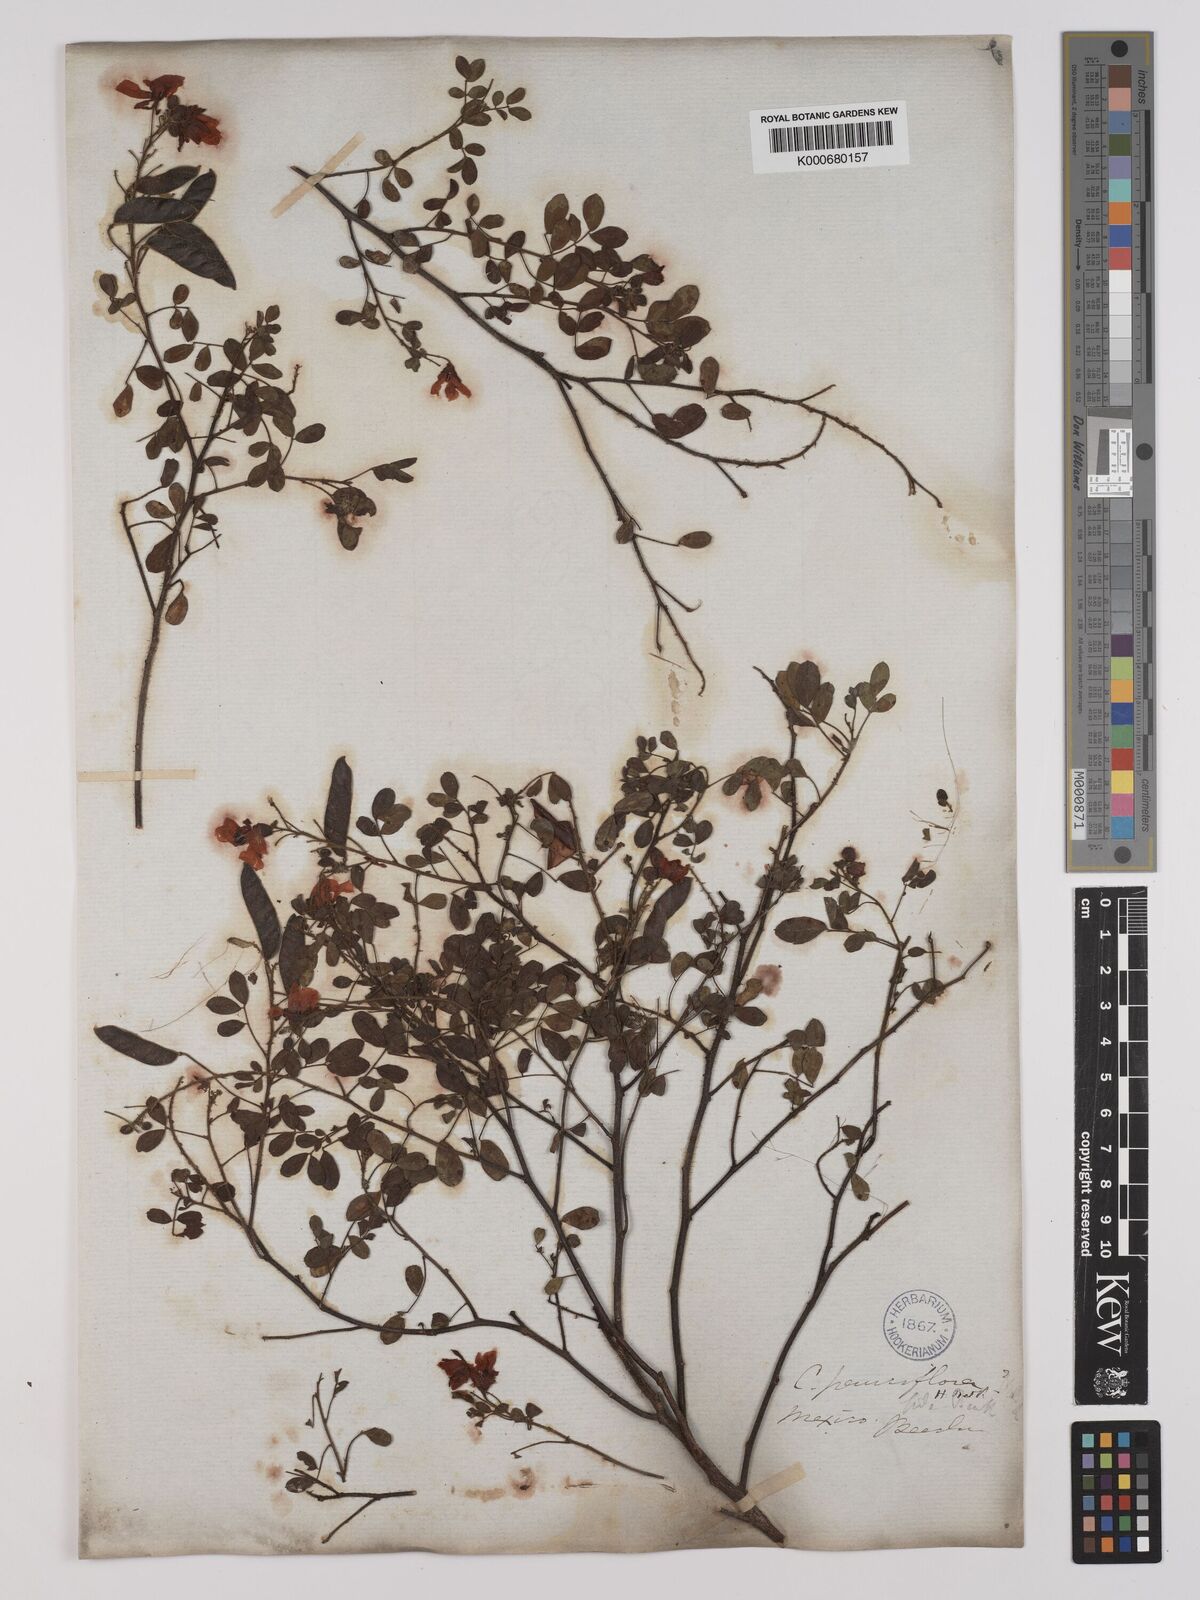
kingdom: Plantae
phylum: Tracheophyta
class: Magnoliopsida
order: Fabales
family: Fabaceae
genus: Chamaecrista
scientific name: Chamaecrista hispidula
